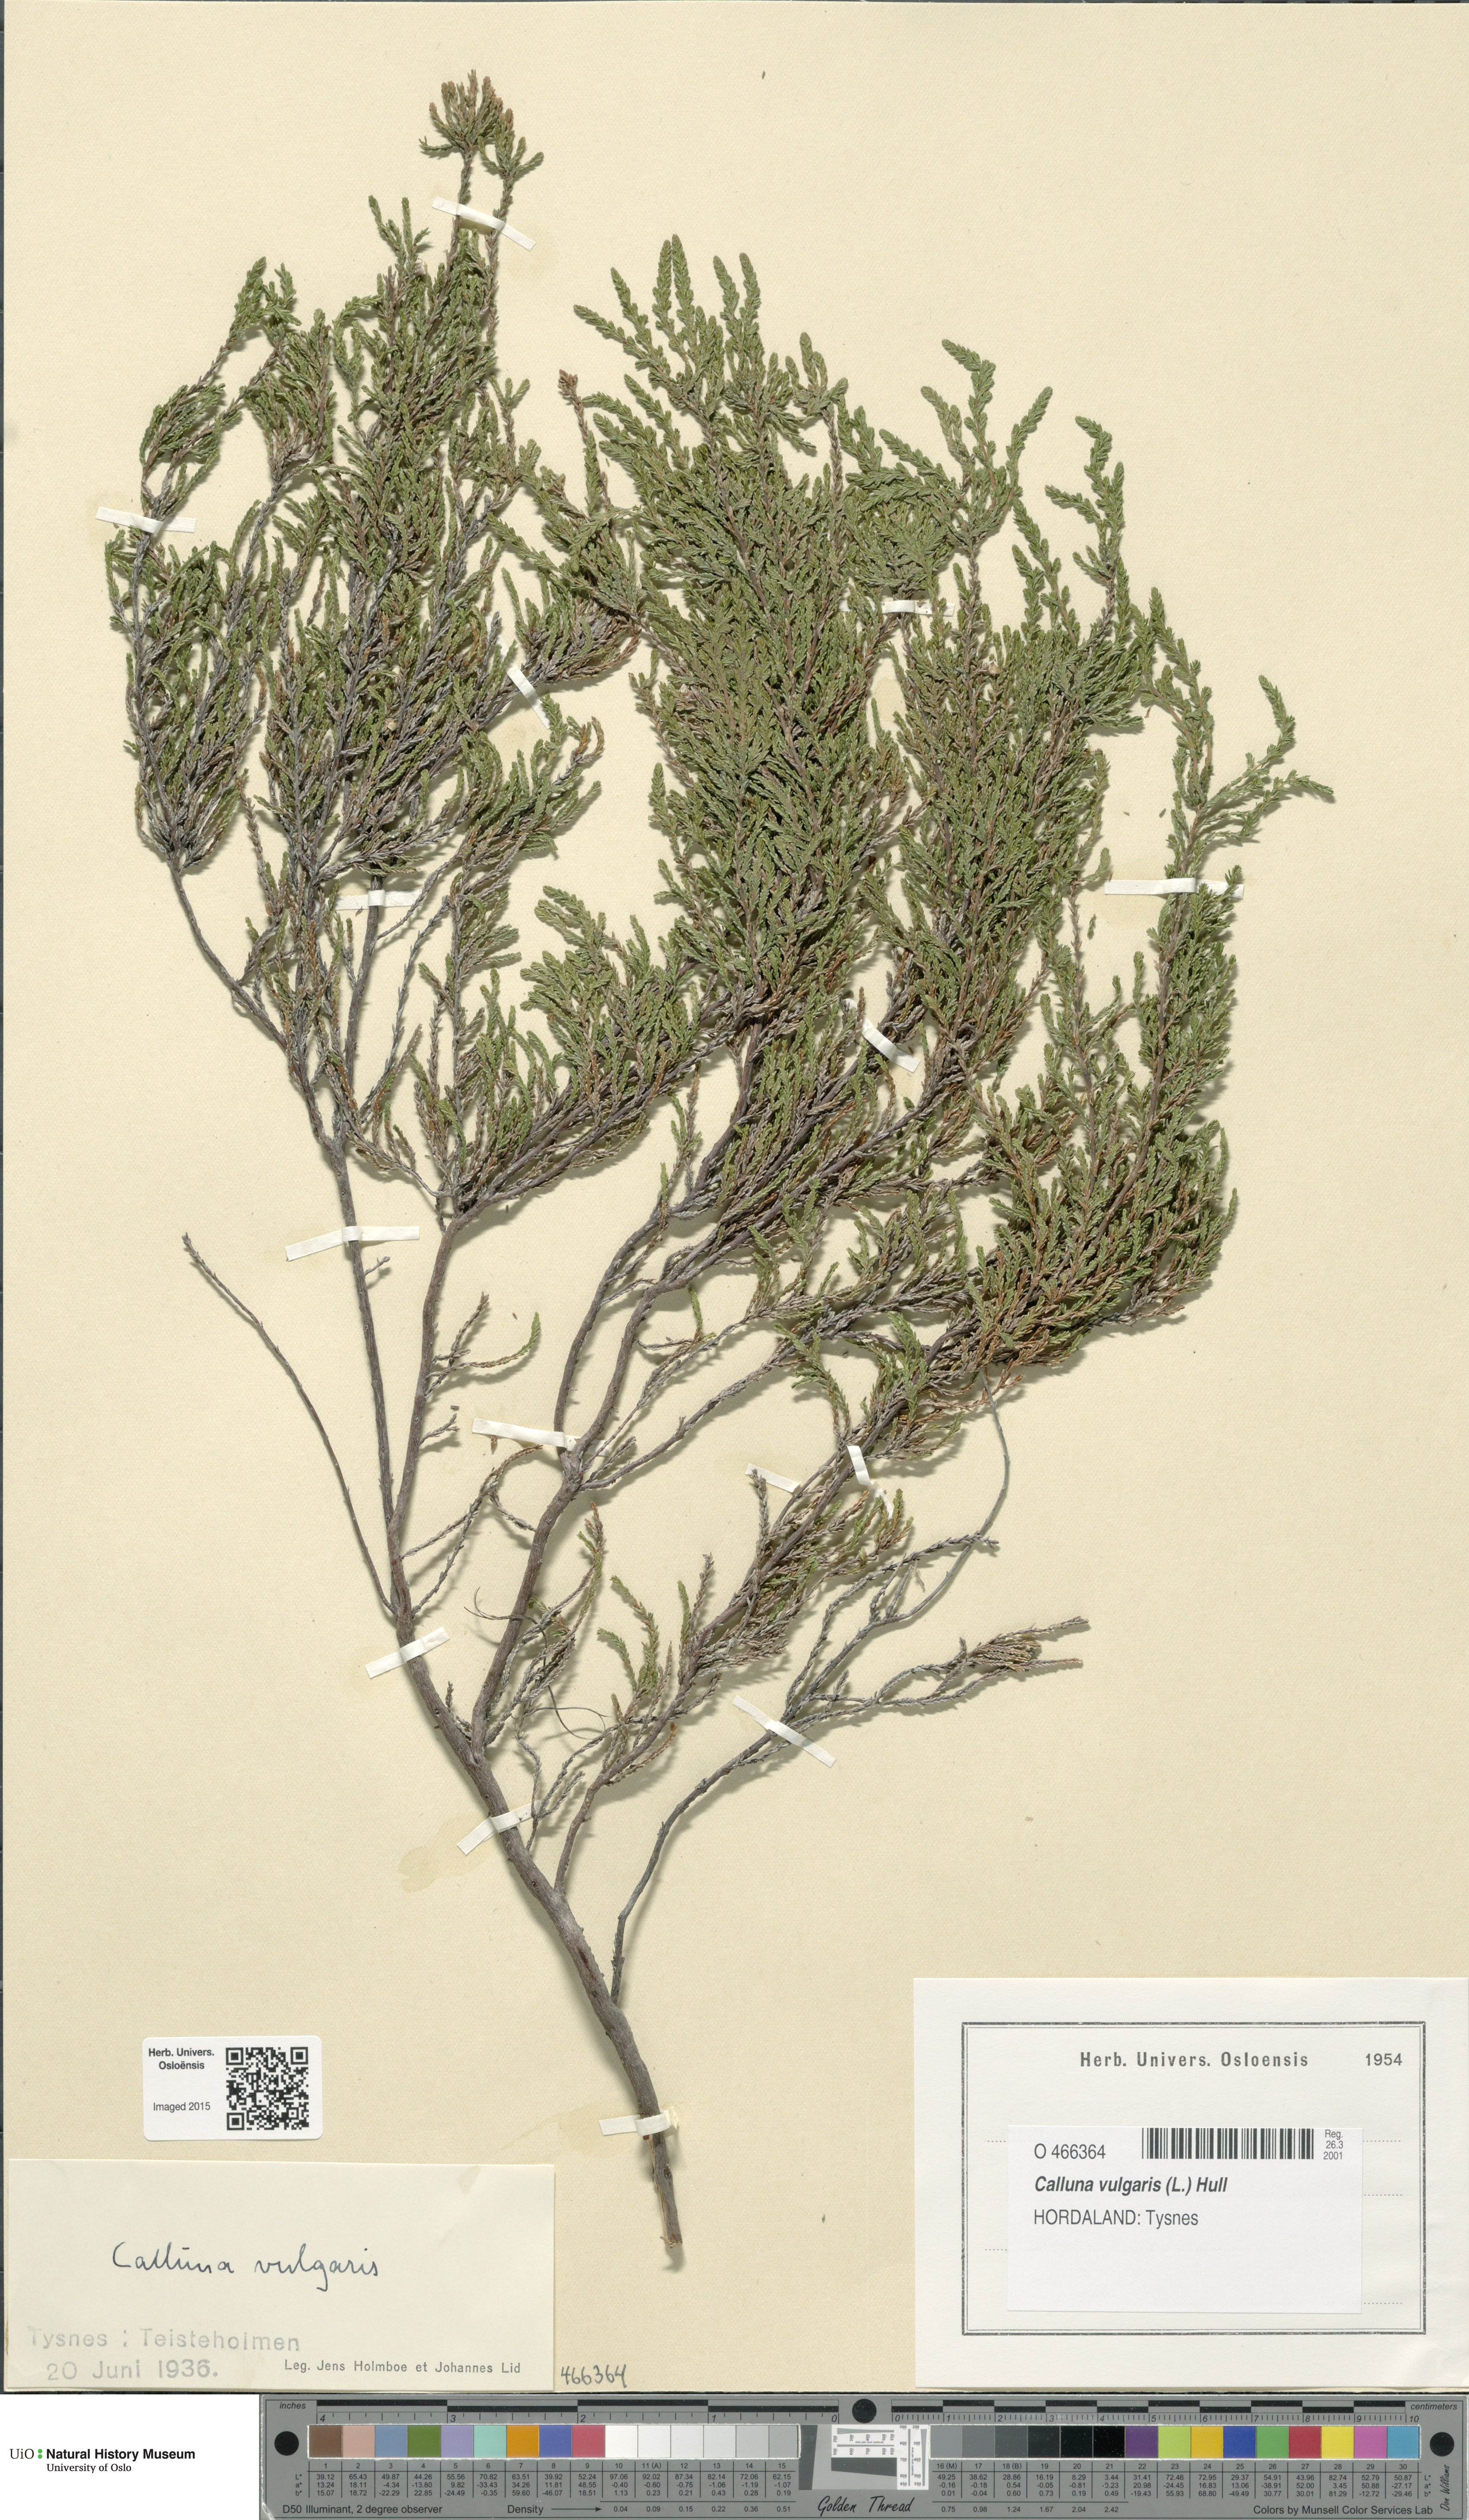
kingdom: Plantae
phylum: Tracheophyta
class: Magnoliopsida
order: Ericales
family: Ericaceae
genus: Calluna
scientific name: Calluna vulgaris
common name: Heather
